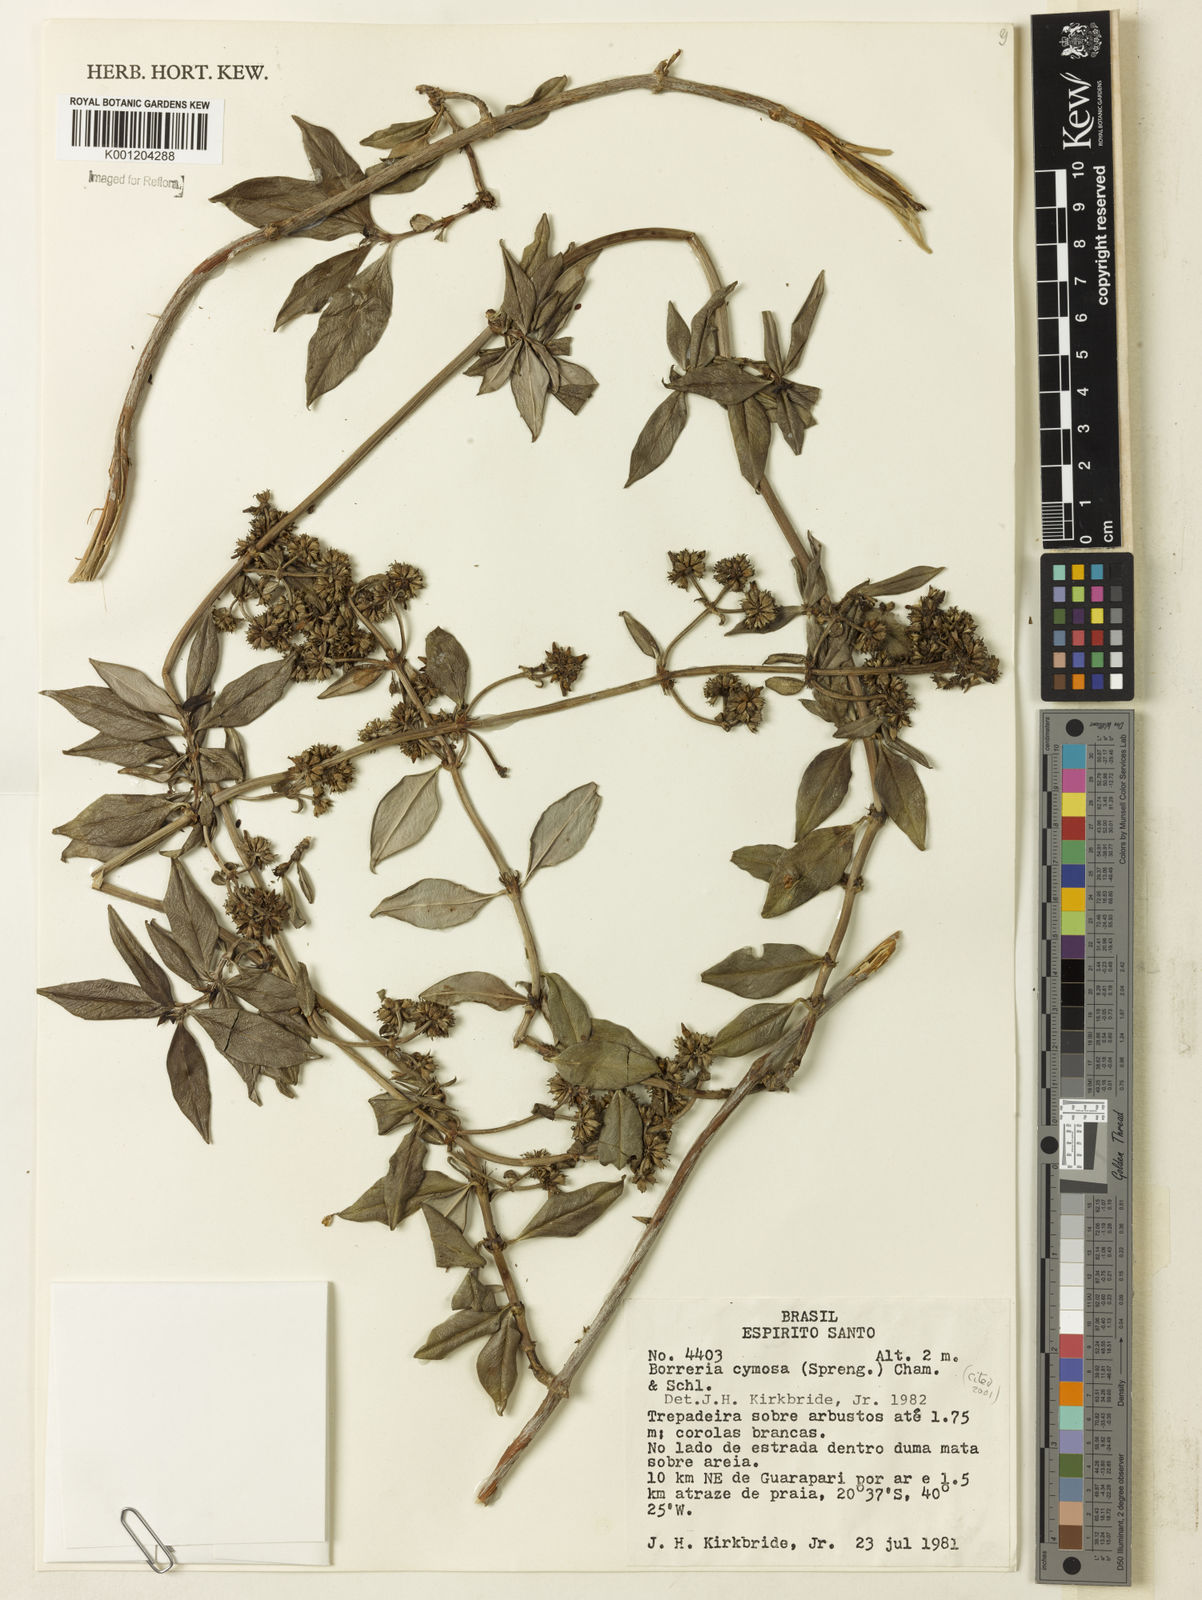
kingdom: Plantae
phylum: Tracheophyta
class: Magnoliopsida
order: Gentianales
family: Rubiaceae
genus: Denscantia
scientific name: Denscantia cymosa
